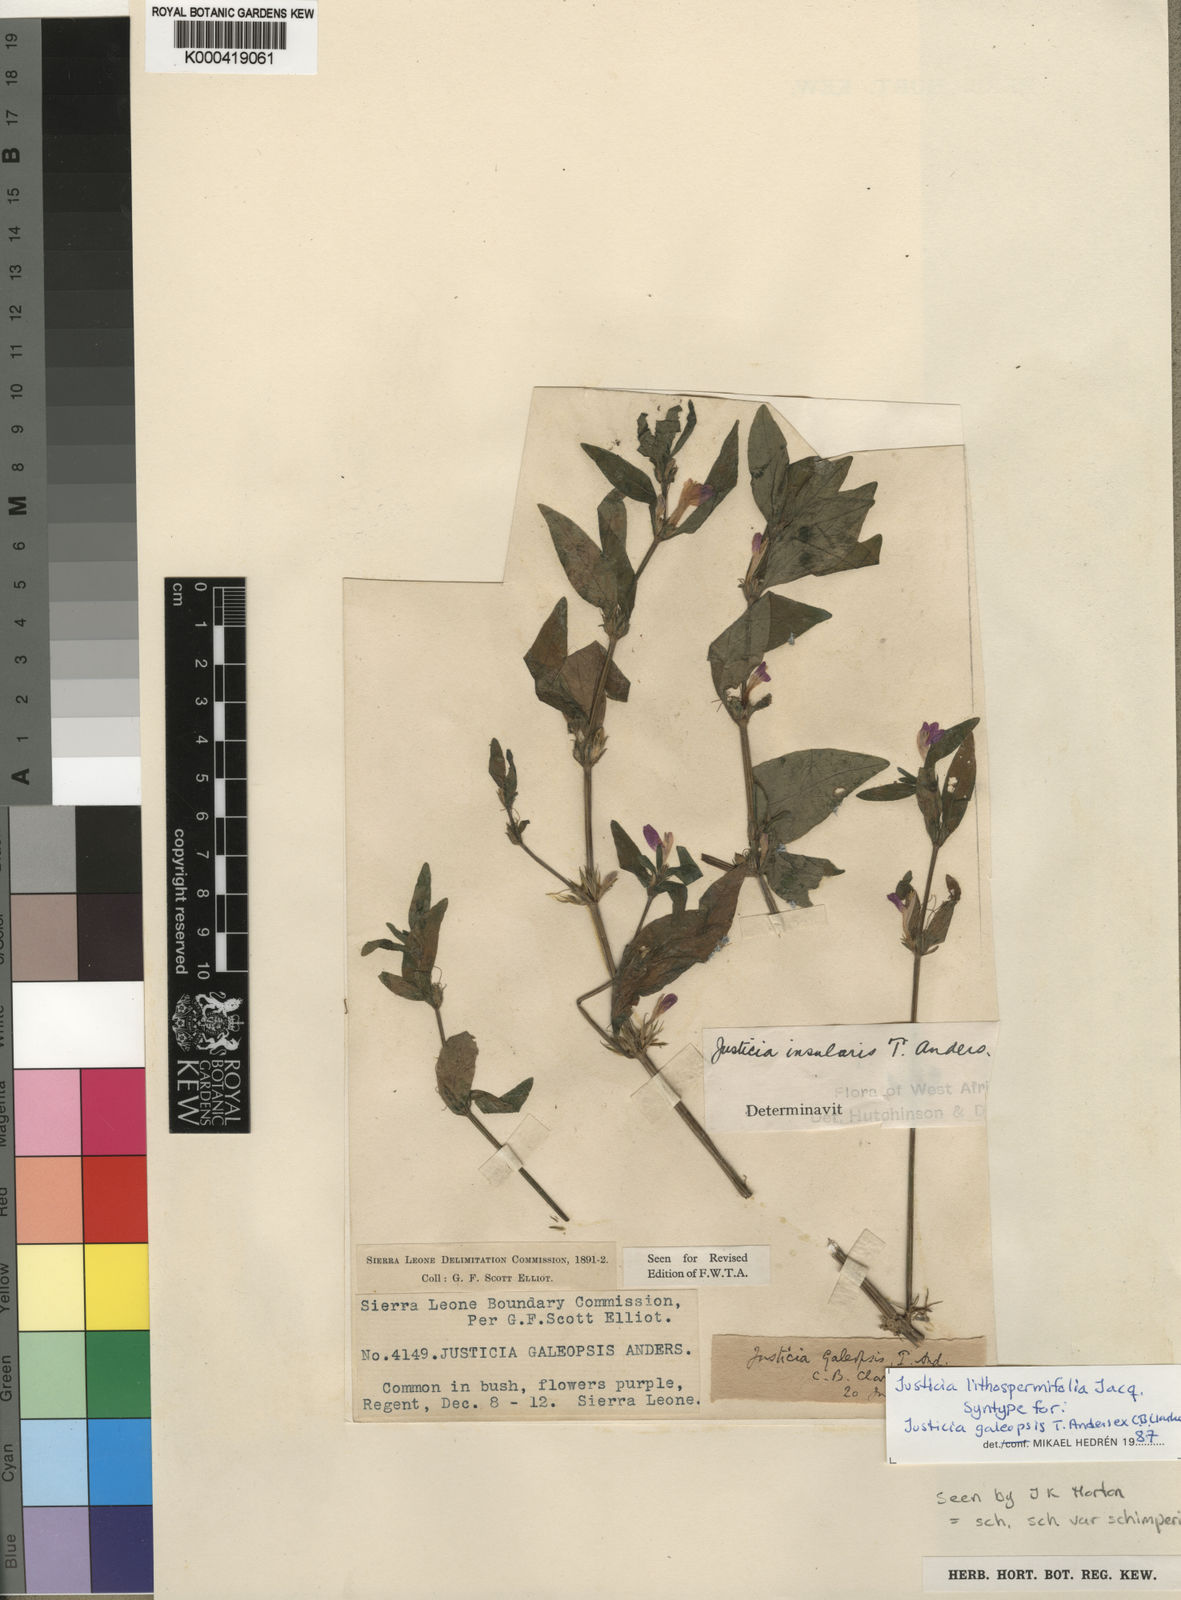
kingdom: Plantae
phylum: Tracheophyta
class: Magnoliopsida
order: Lamiales
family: Acanthaceae
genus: Justicia
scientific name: Justicia ladanoides
